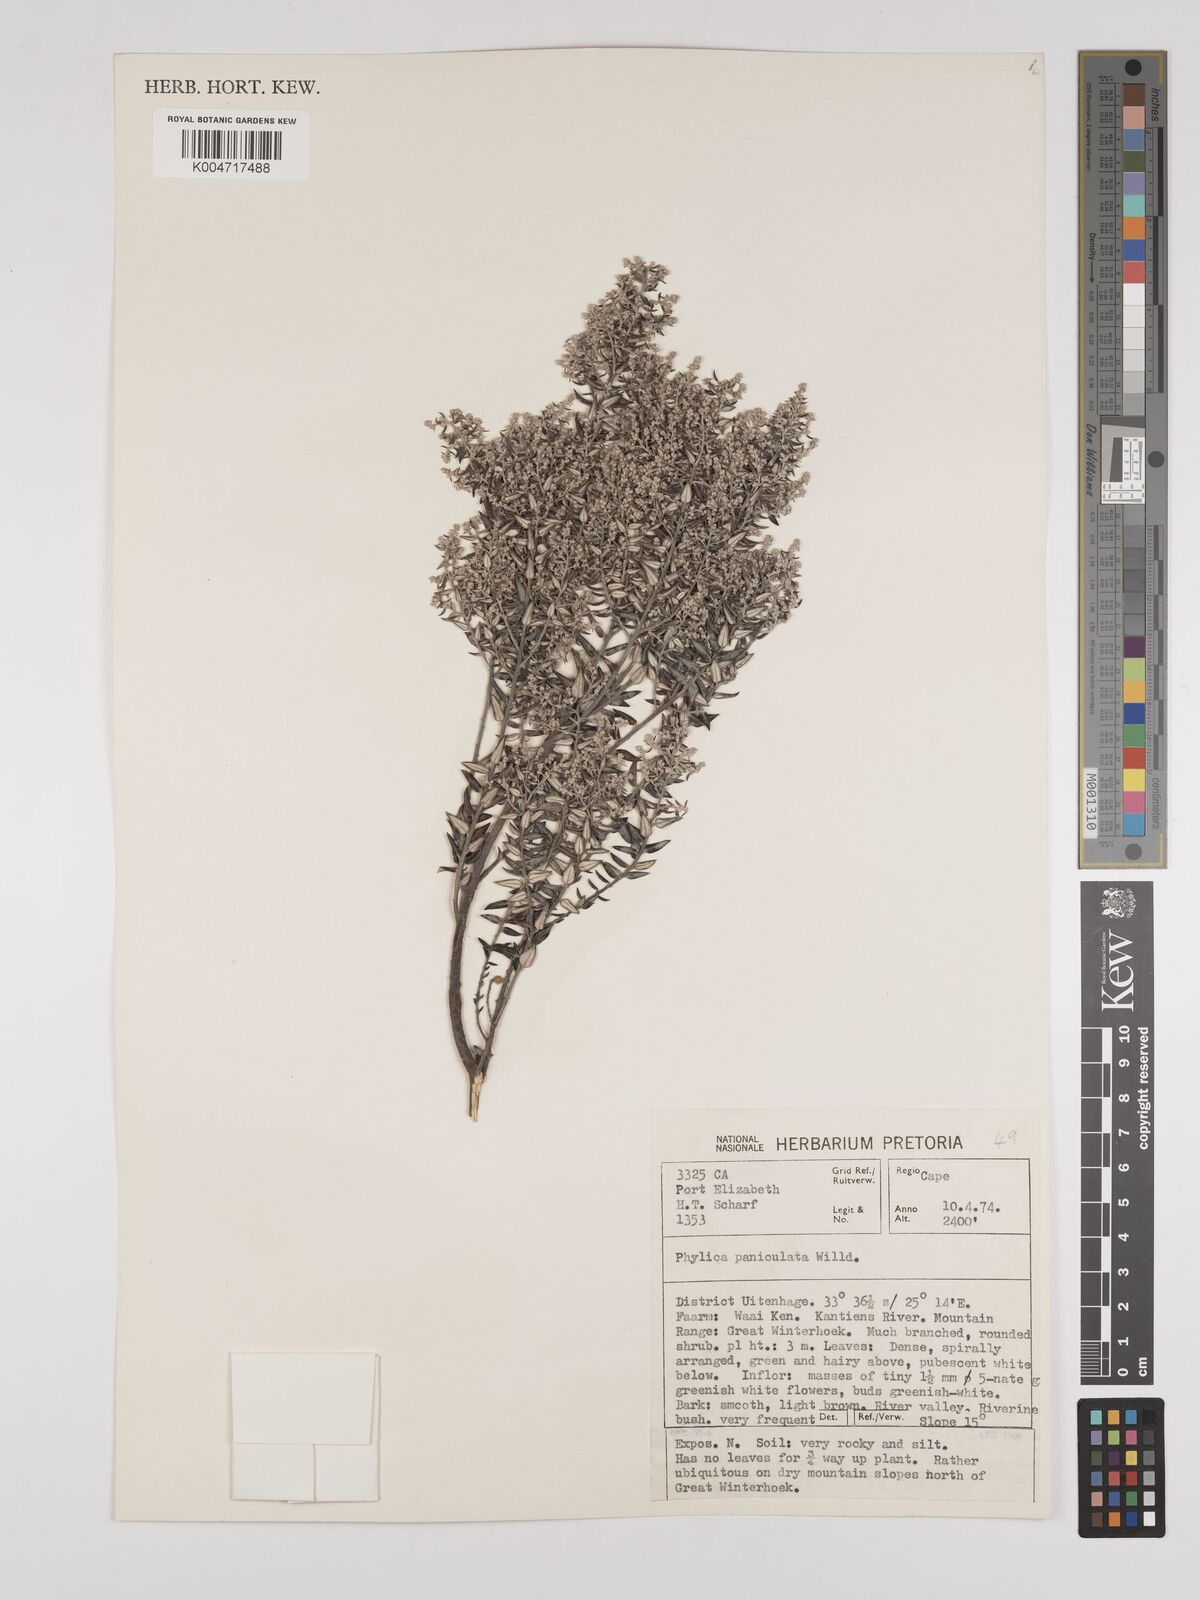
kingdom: Plantae
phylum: Tracheophyta
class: Magnoliopsida
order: Rosales
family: Rhamnaceae
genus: Phylica
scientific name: Phylica paniculata
